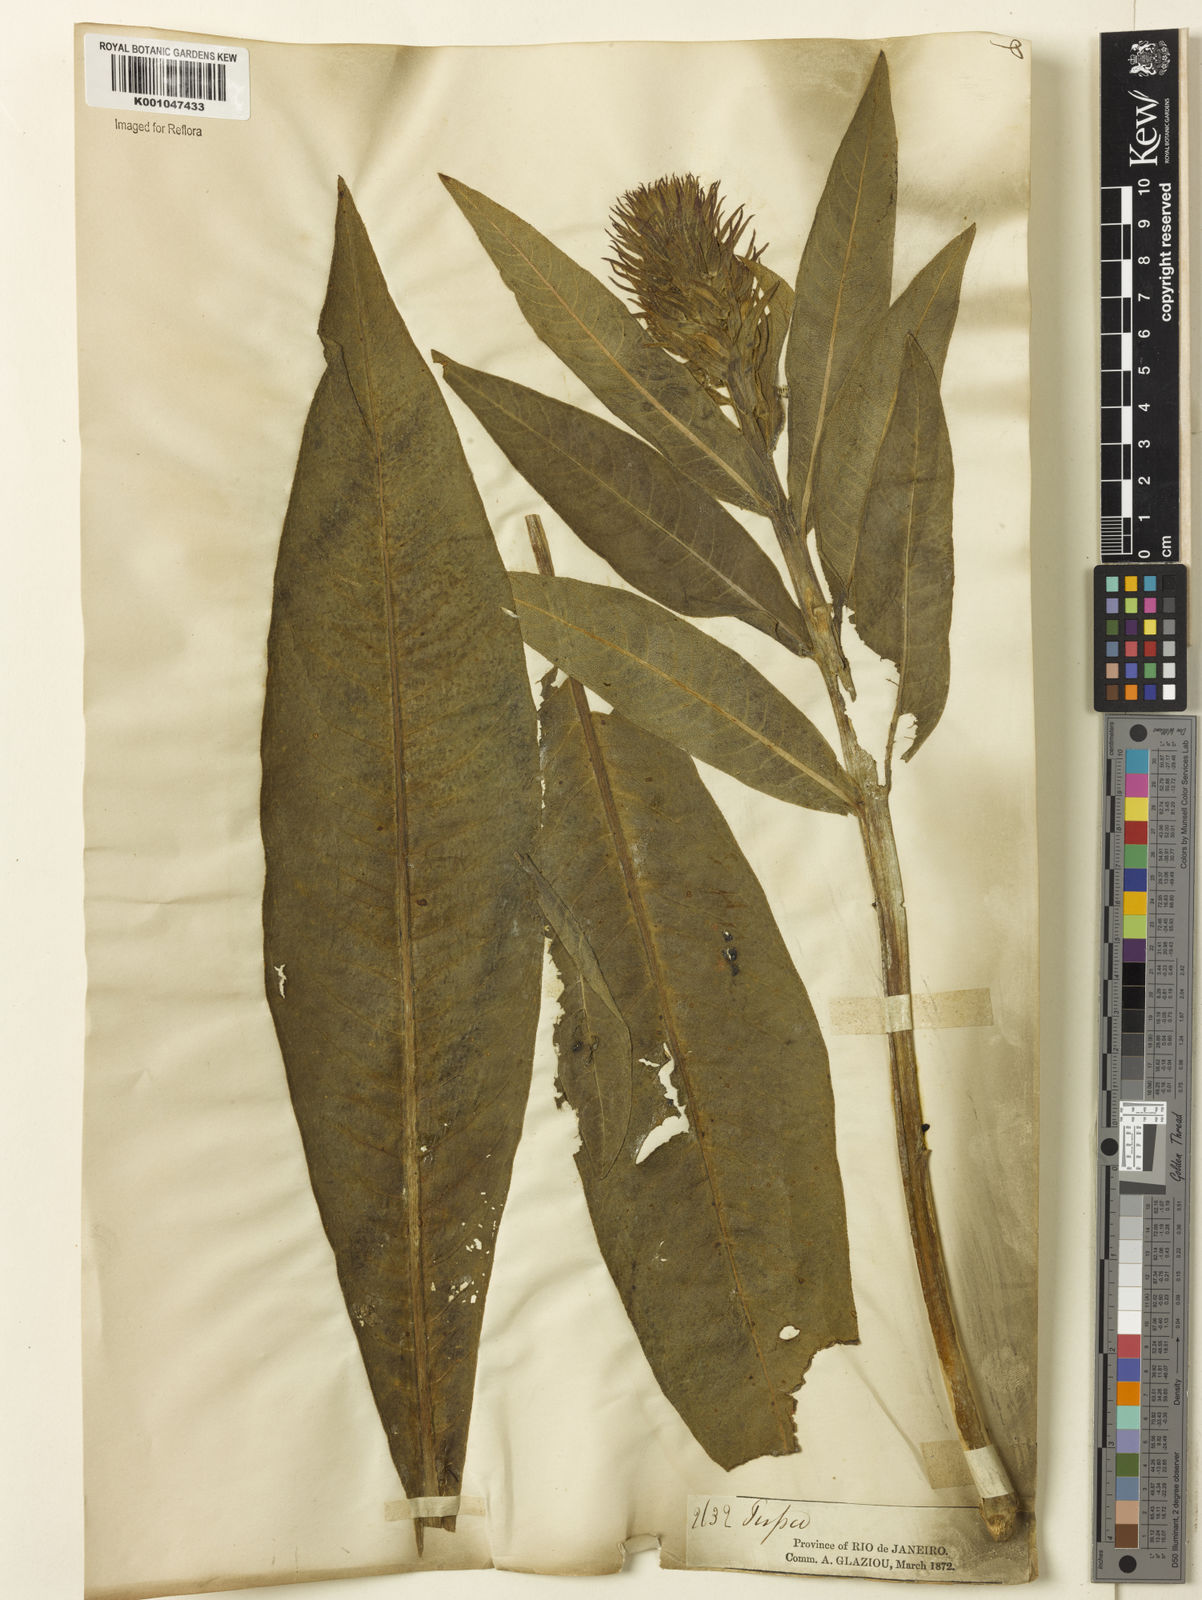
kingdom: Plantae
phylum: Tracheophyta
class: Magnoliopsida
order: Asterales
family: Campanulaceae
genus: Lobelia
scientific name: Lobelia
